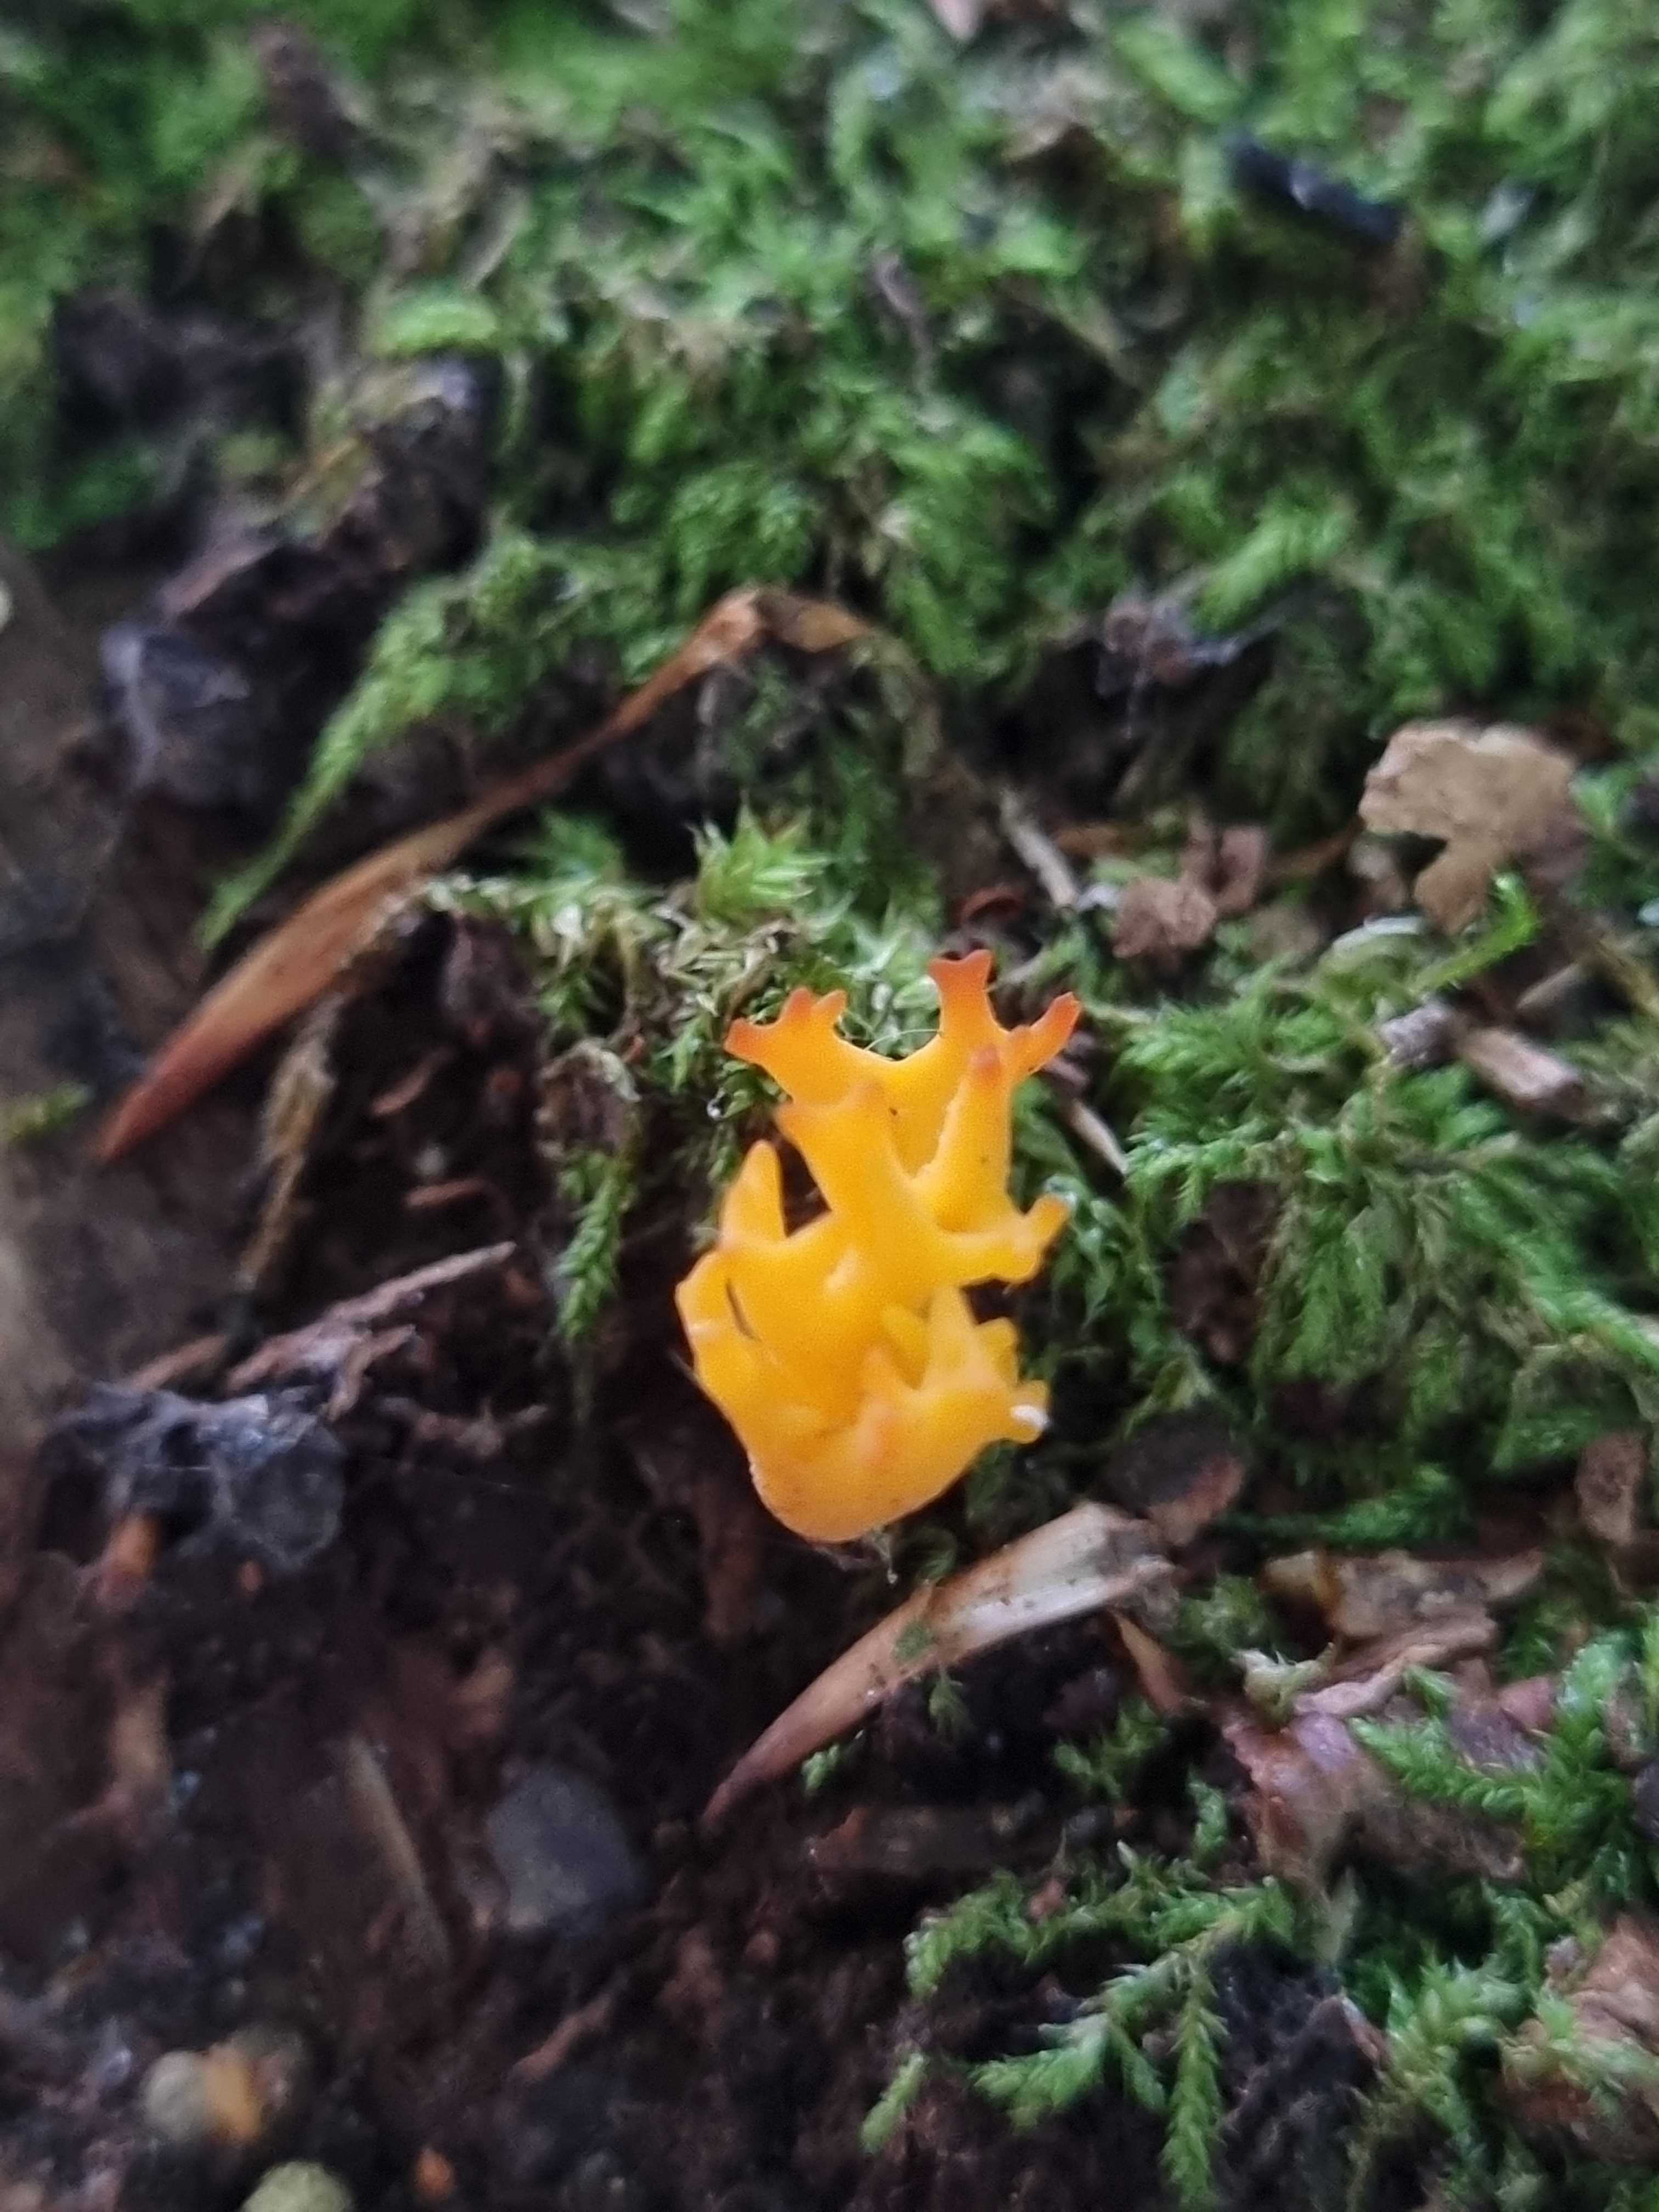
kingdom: Fungi
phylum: Basidiomycota
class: Dacrymycetes
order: Dacrymycetales
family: Dacrymycetaceae
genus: Calocera
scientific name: Calocera viscosa
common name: almindelig guldgaffel
